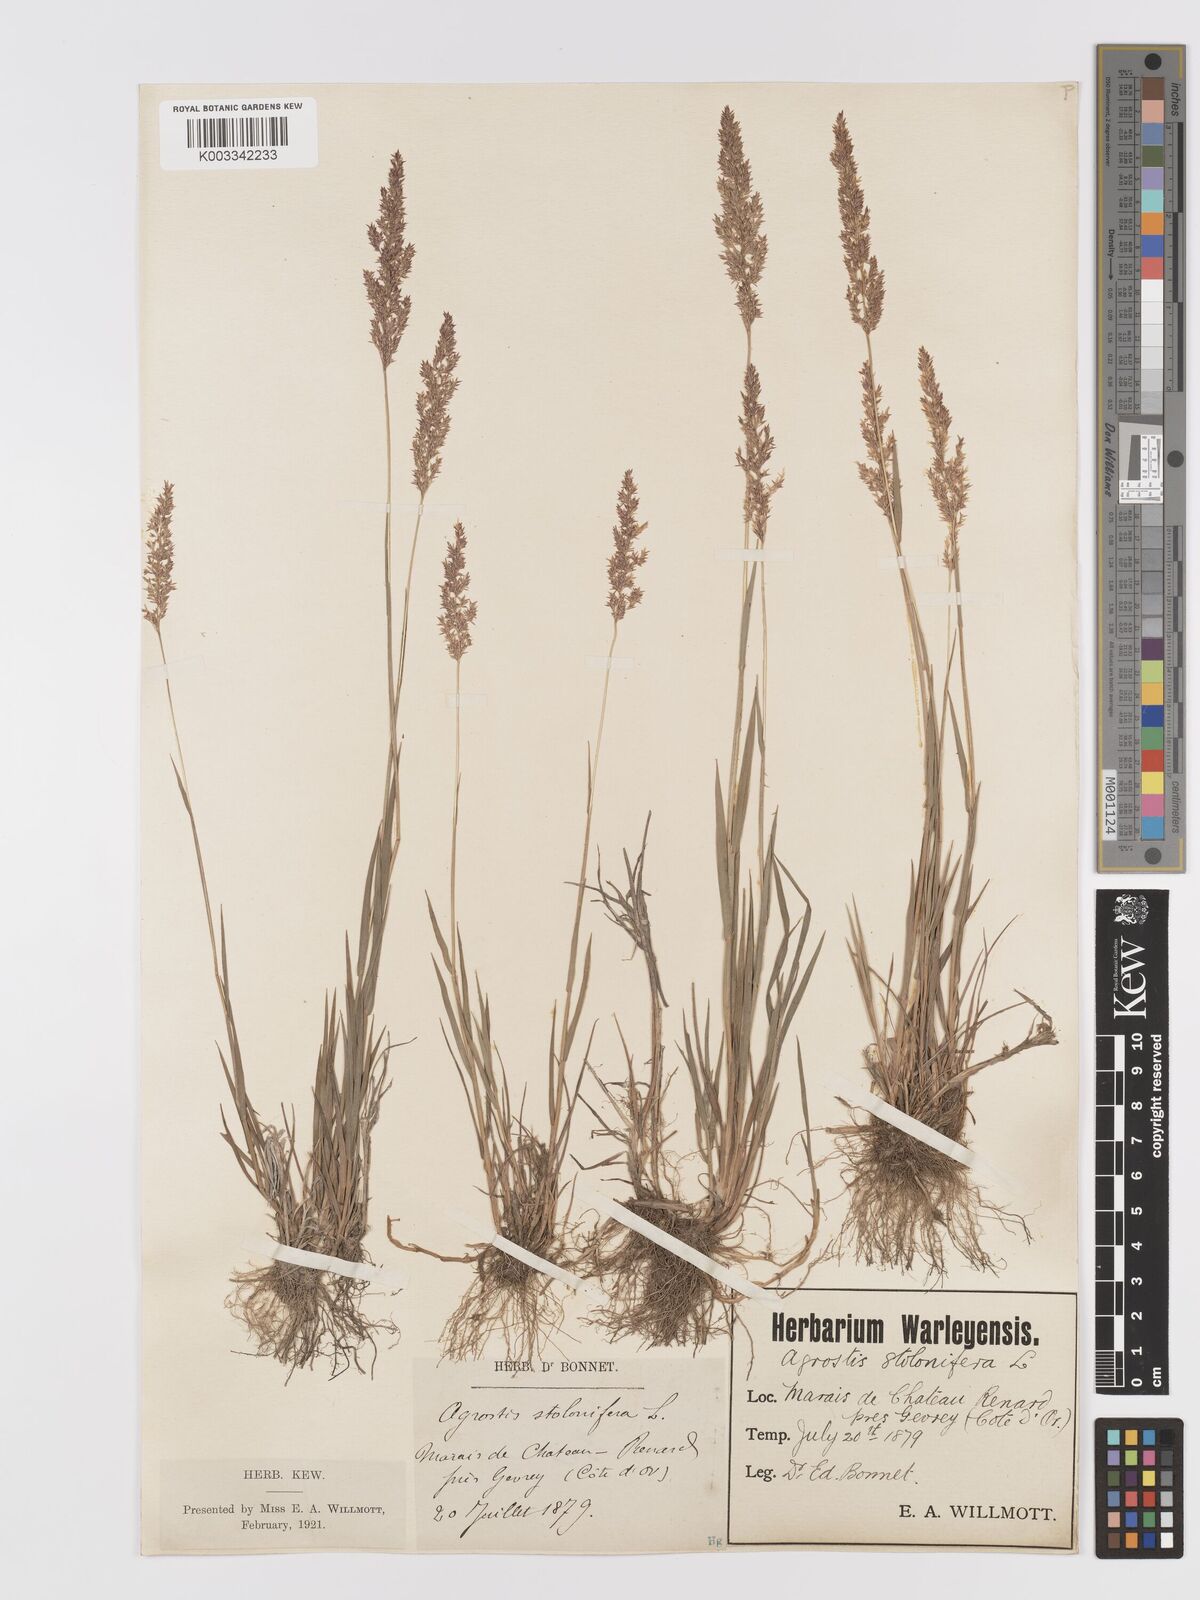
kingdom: Plantae
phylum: Tracheophyta
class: Liliopsida
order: Poales
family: Poaceae
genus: Agrostis
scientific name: Agrostis stolonifera
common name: Creeping bentgrass
